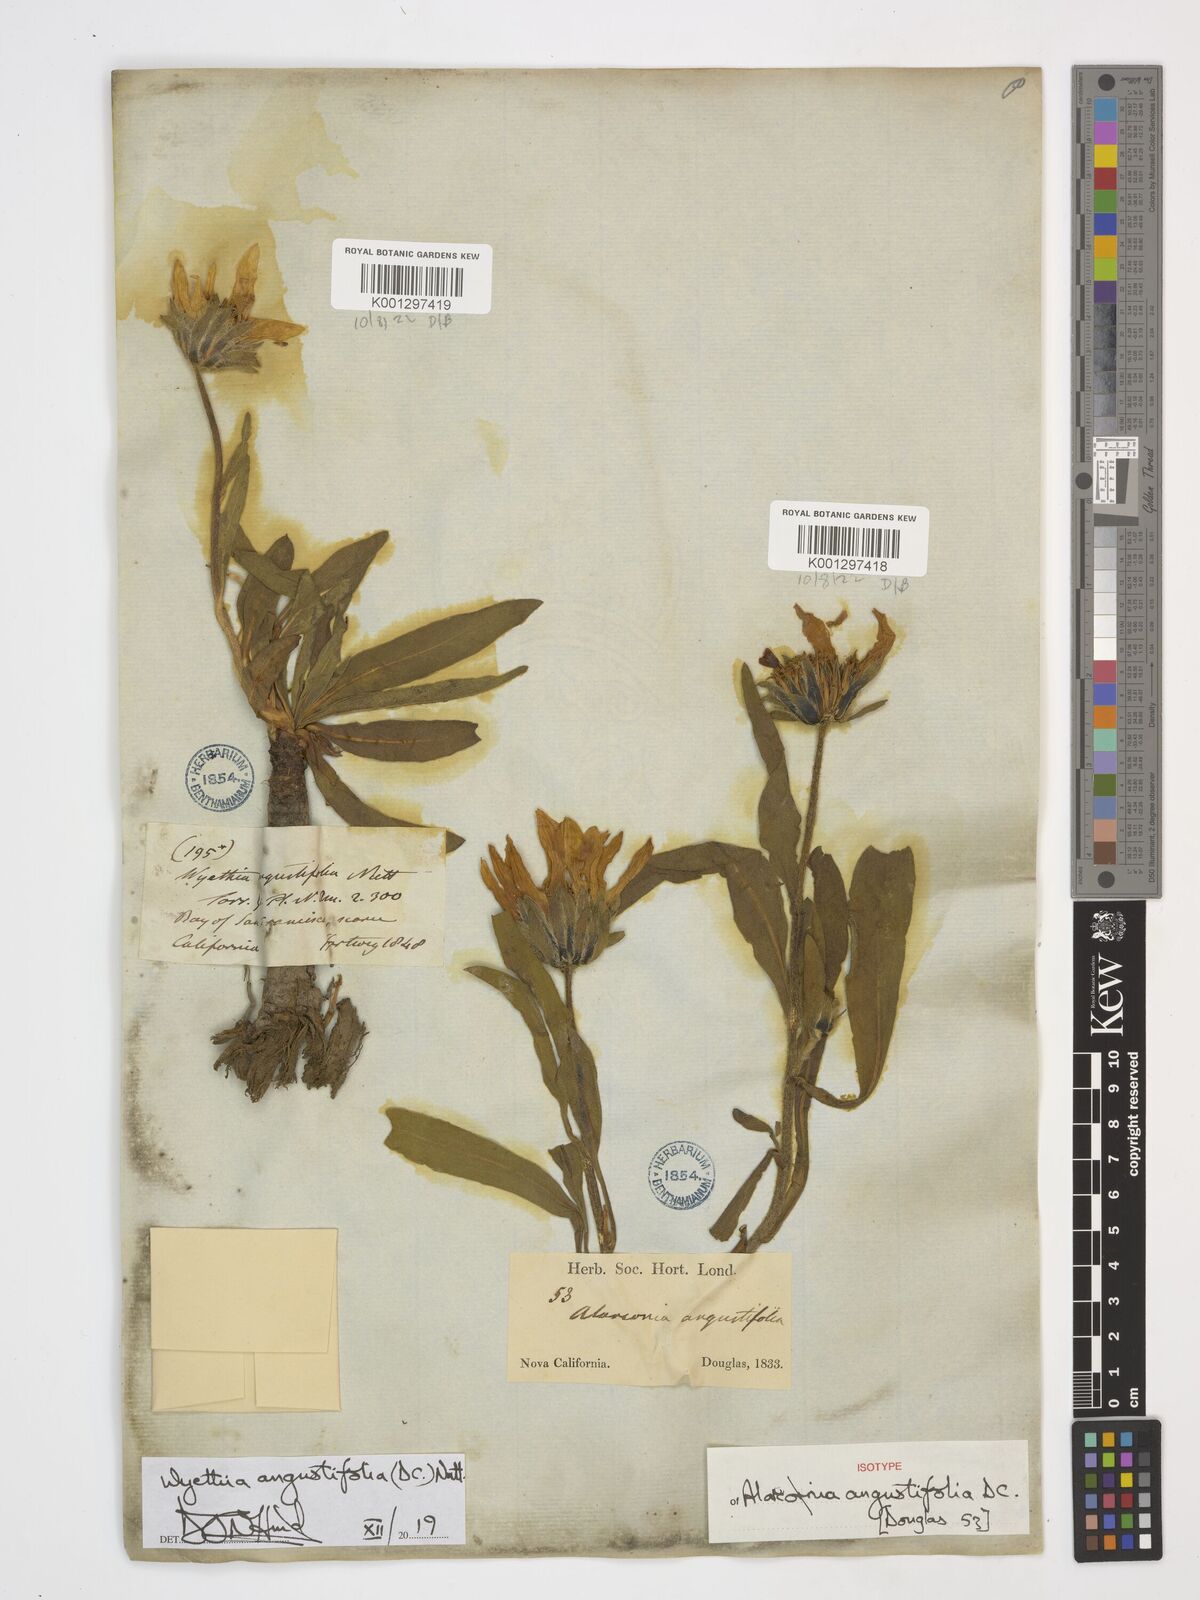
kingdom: Plantae
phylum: Tracheophyta
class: Magnoliopsida
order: Asterales
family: Asteraceae
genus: Wyethia
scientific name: Wyethia angustifolia
